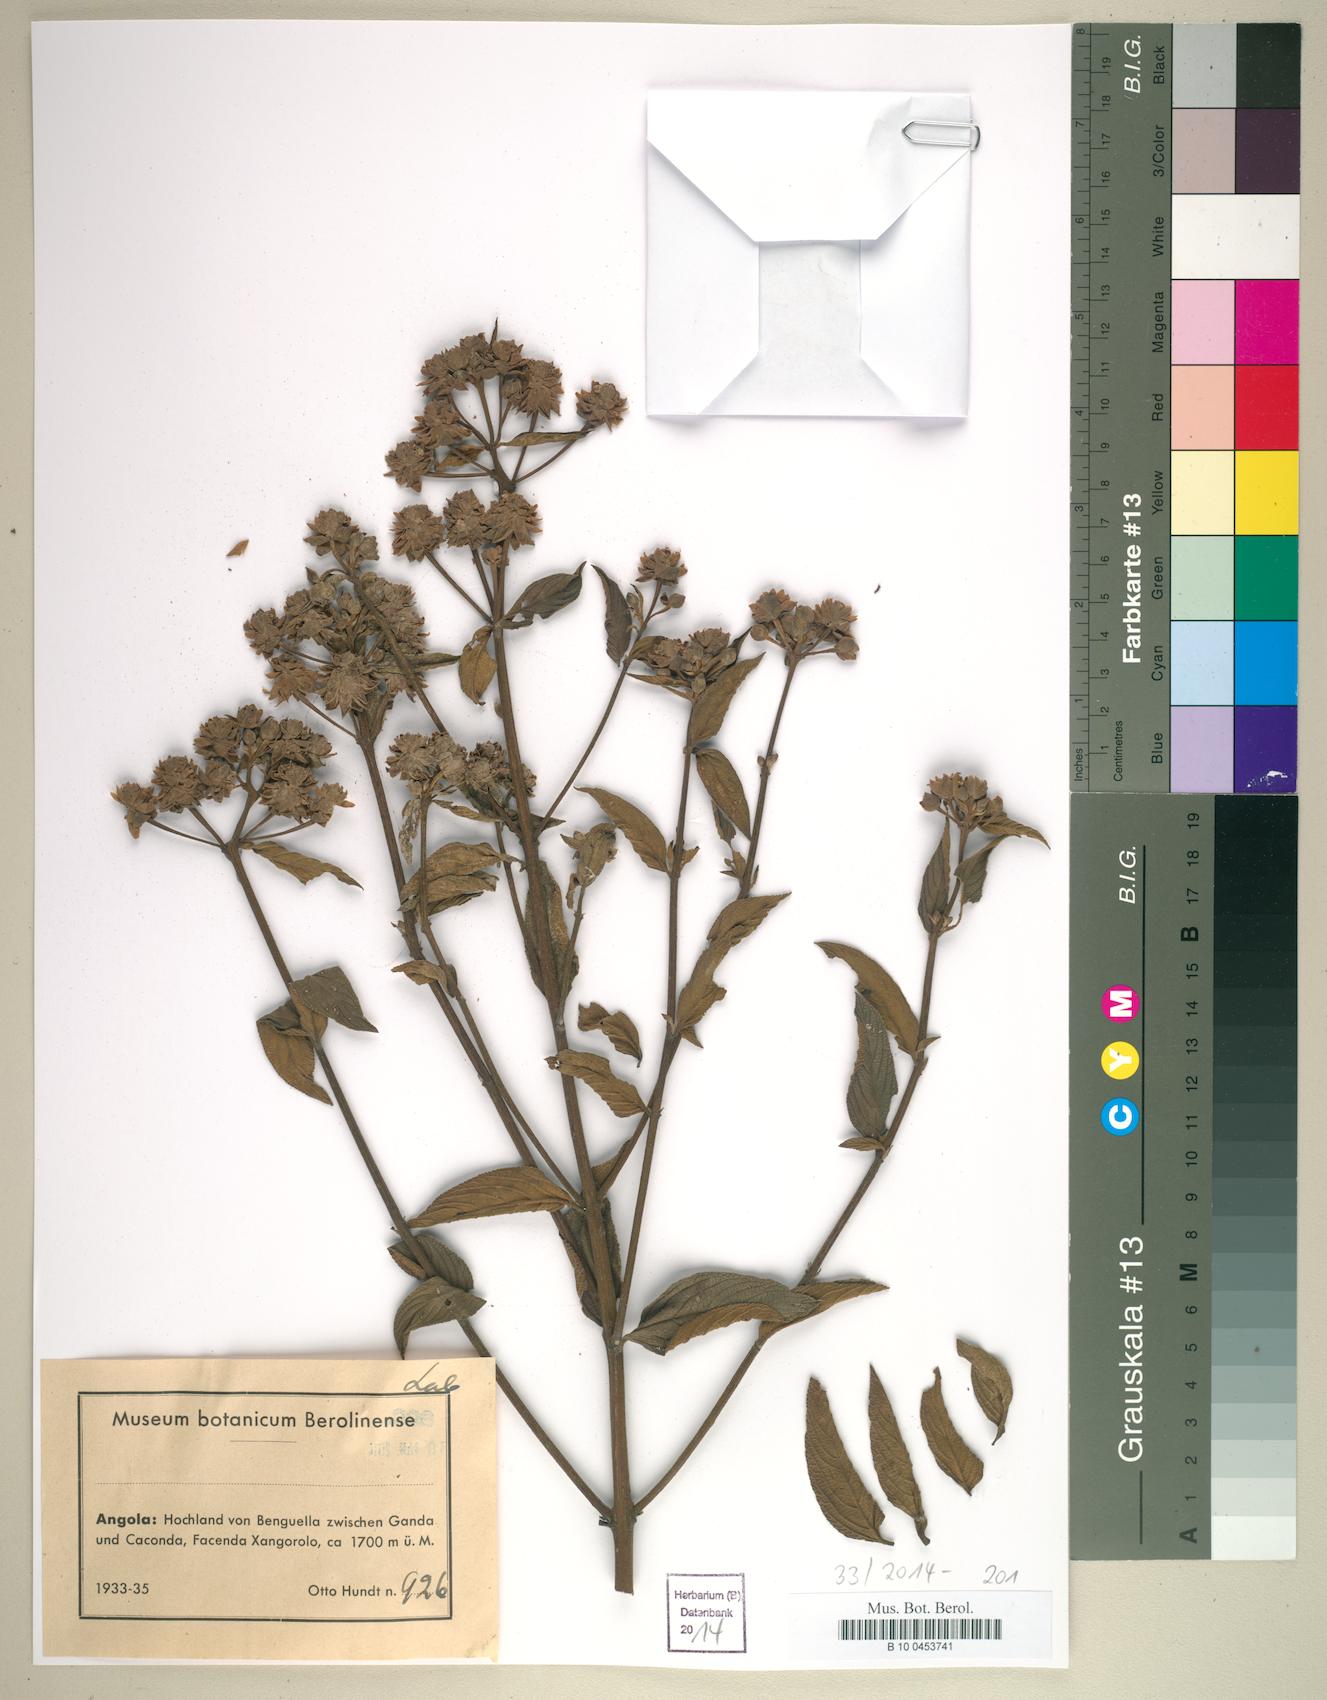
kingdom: Plantae
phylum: Tracheophyta
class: Magnoliopsida
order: Lamiales
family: Lamiaceae
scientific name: Lamiaceae
